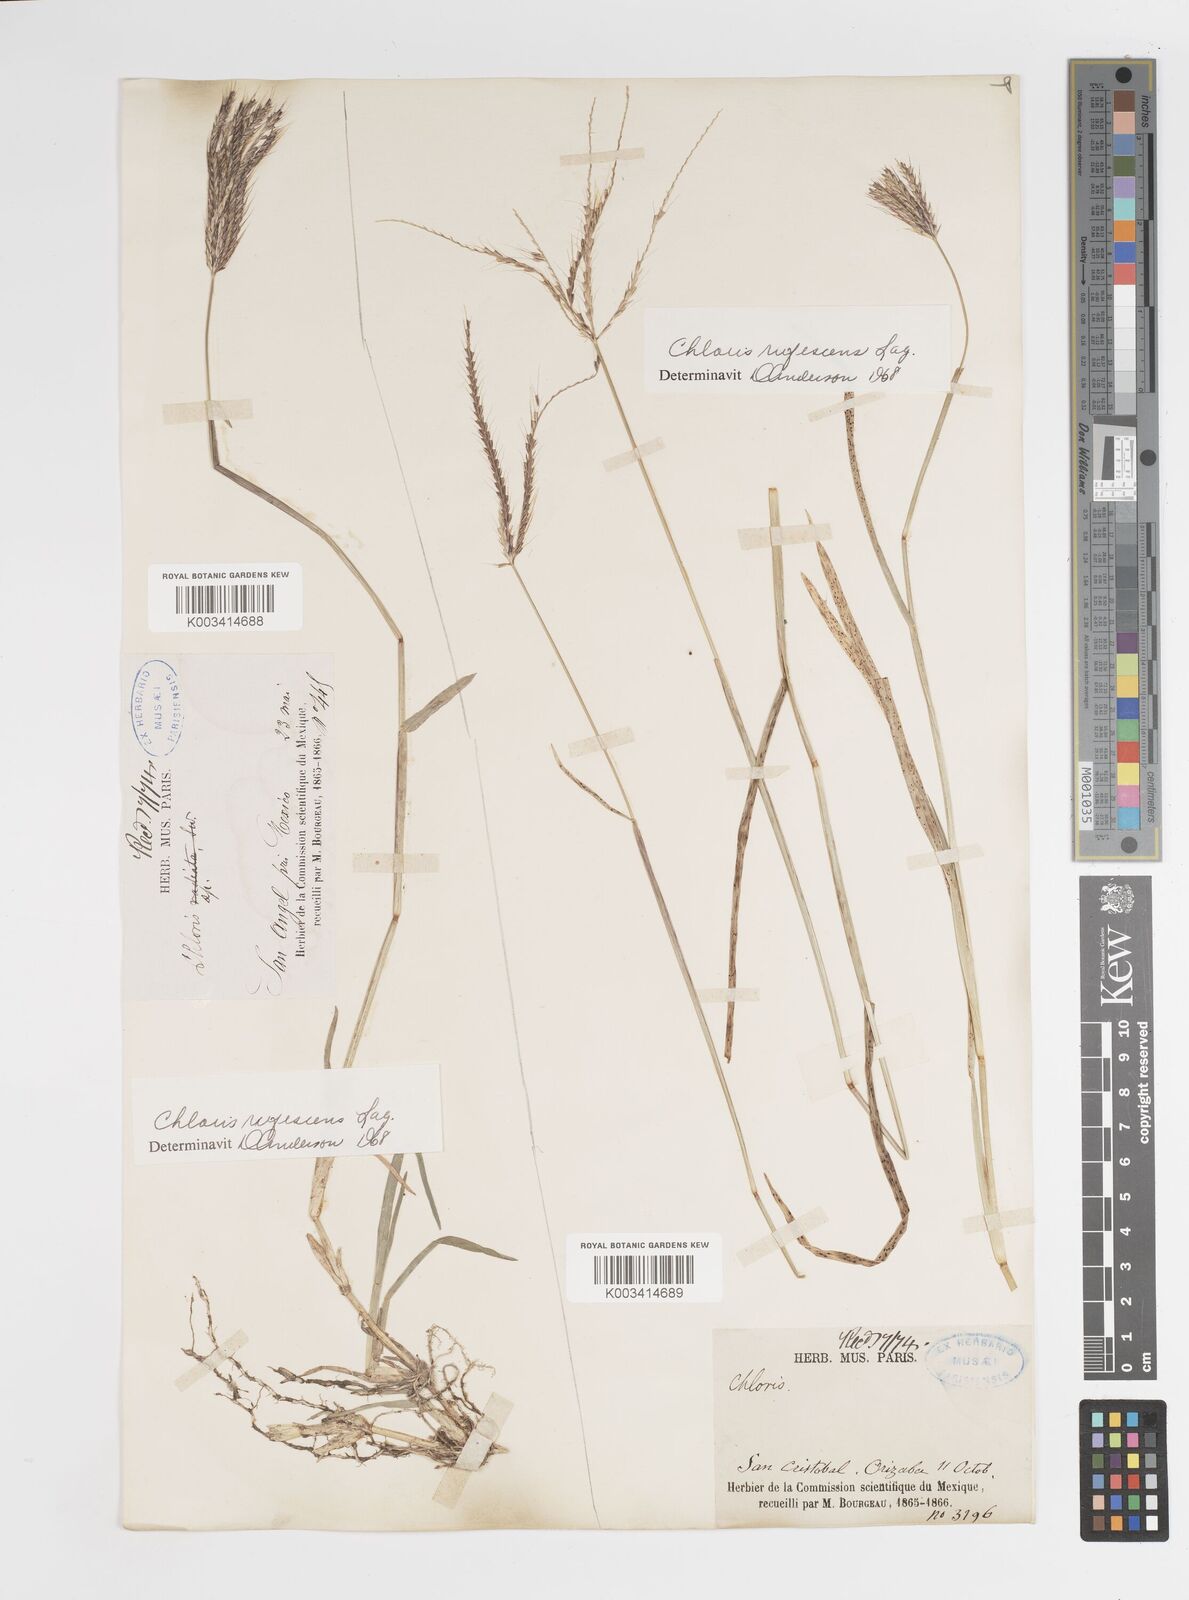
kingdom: Plantae
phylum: Tracheophyta
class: Liliopsida
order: Poales
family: Poaceae
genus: Chloris
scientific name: Chloris rufescens
